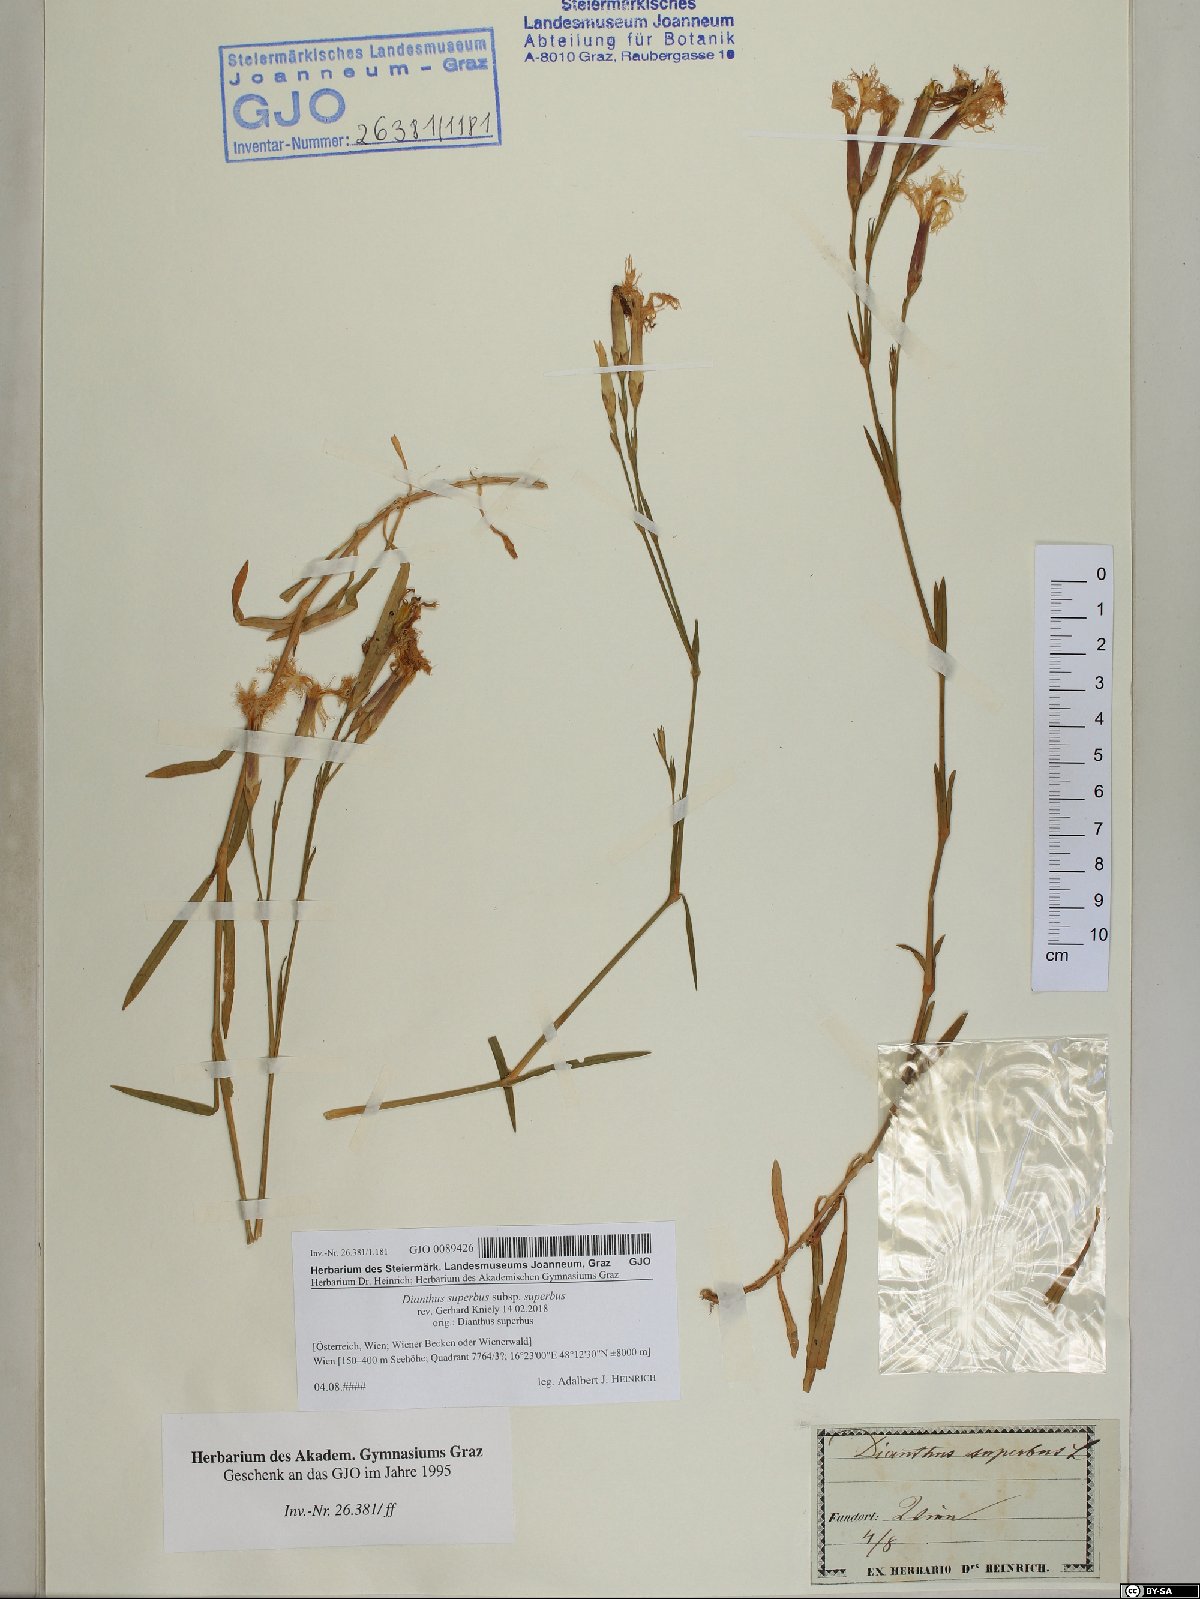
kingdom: Plantae
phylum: Tracheophyta
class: Magnoliopsida
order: Caryophyllales
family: Caryophyllaceae
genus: Dianthus
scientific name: Dianthus superbus
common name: Fringed pink
